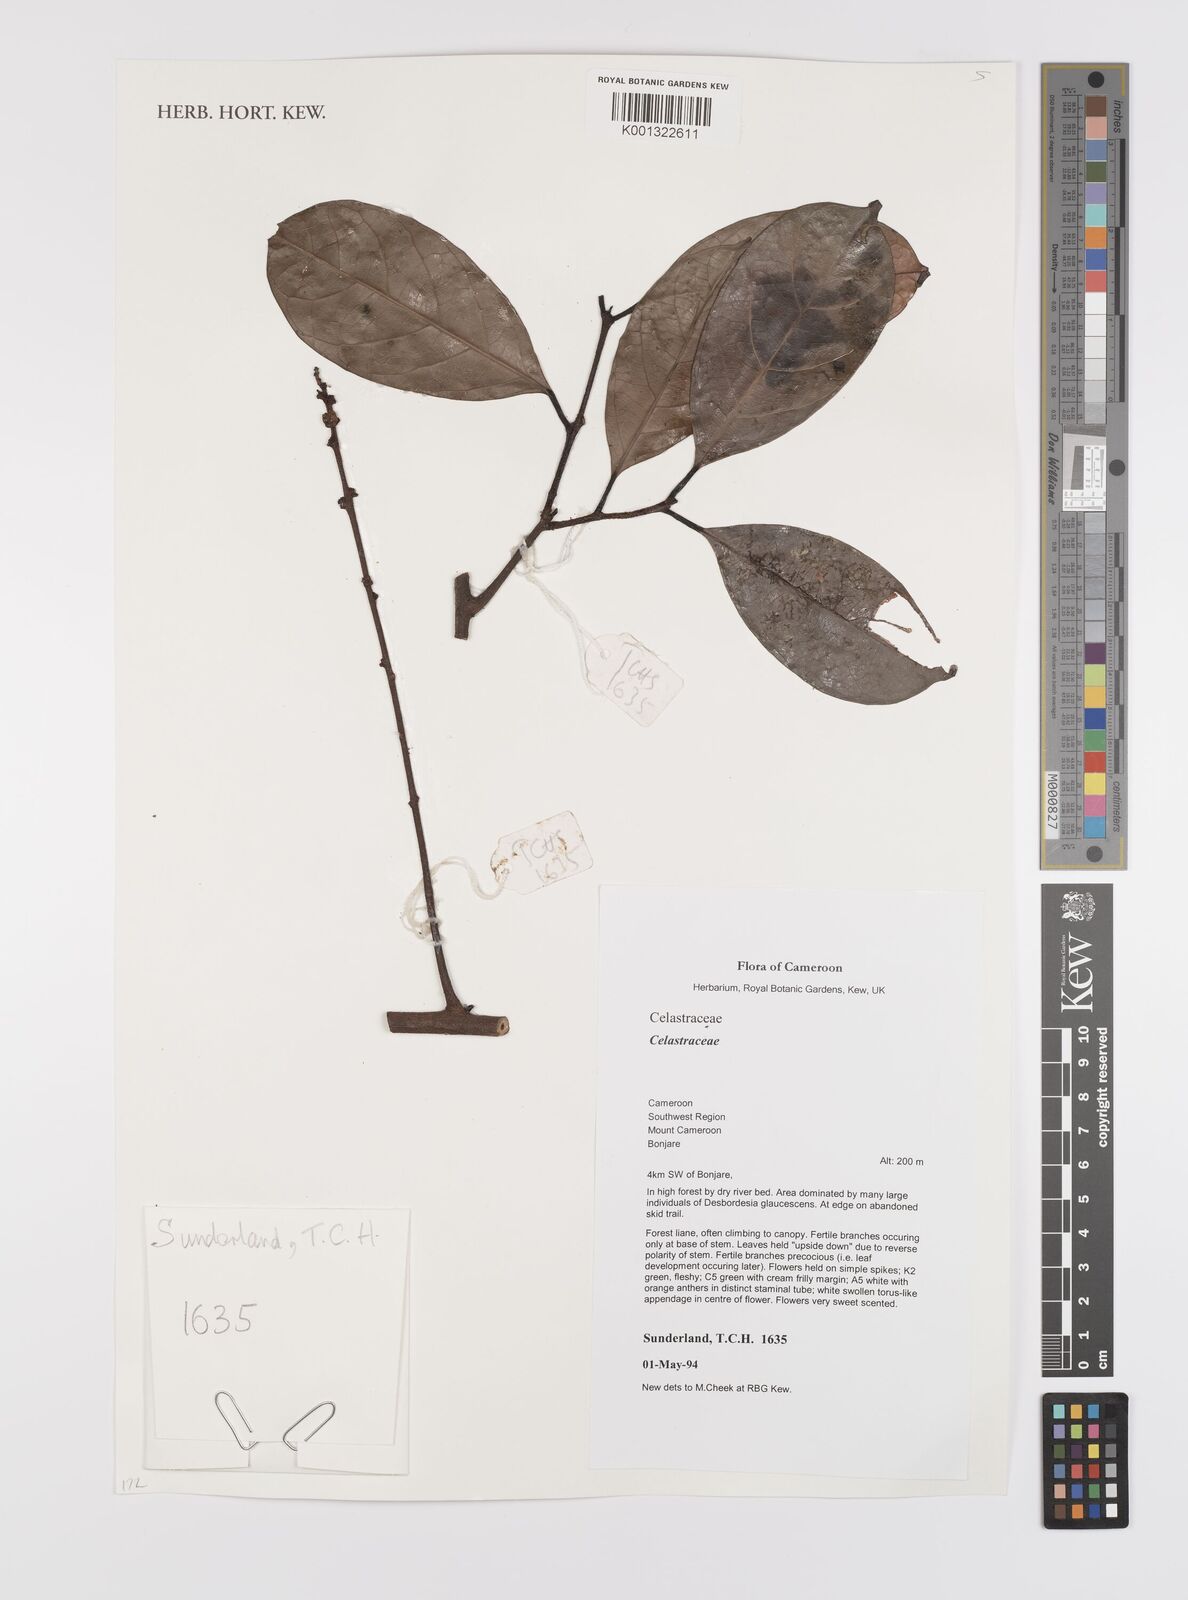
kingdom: Plantae
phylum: Tracheophyta
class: Magnoliopsida
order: Celastrales
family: Celastraceae
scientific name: Celastraceae
